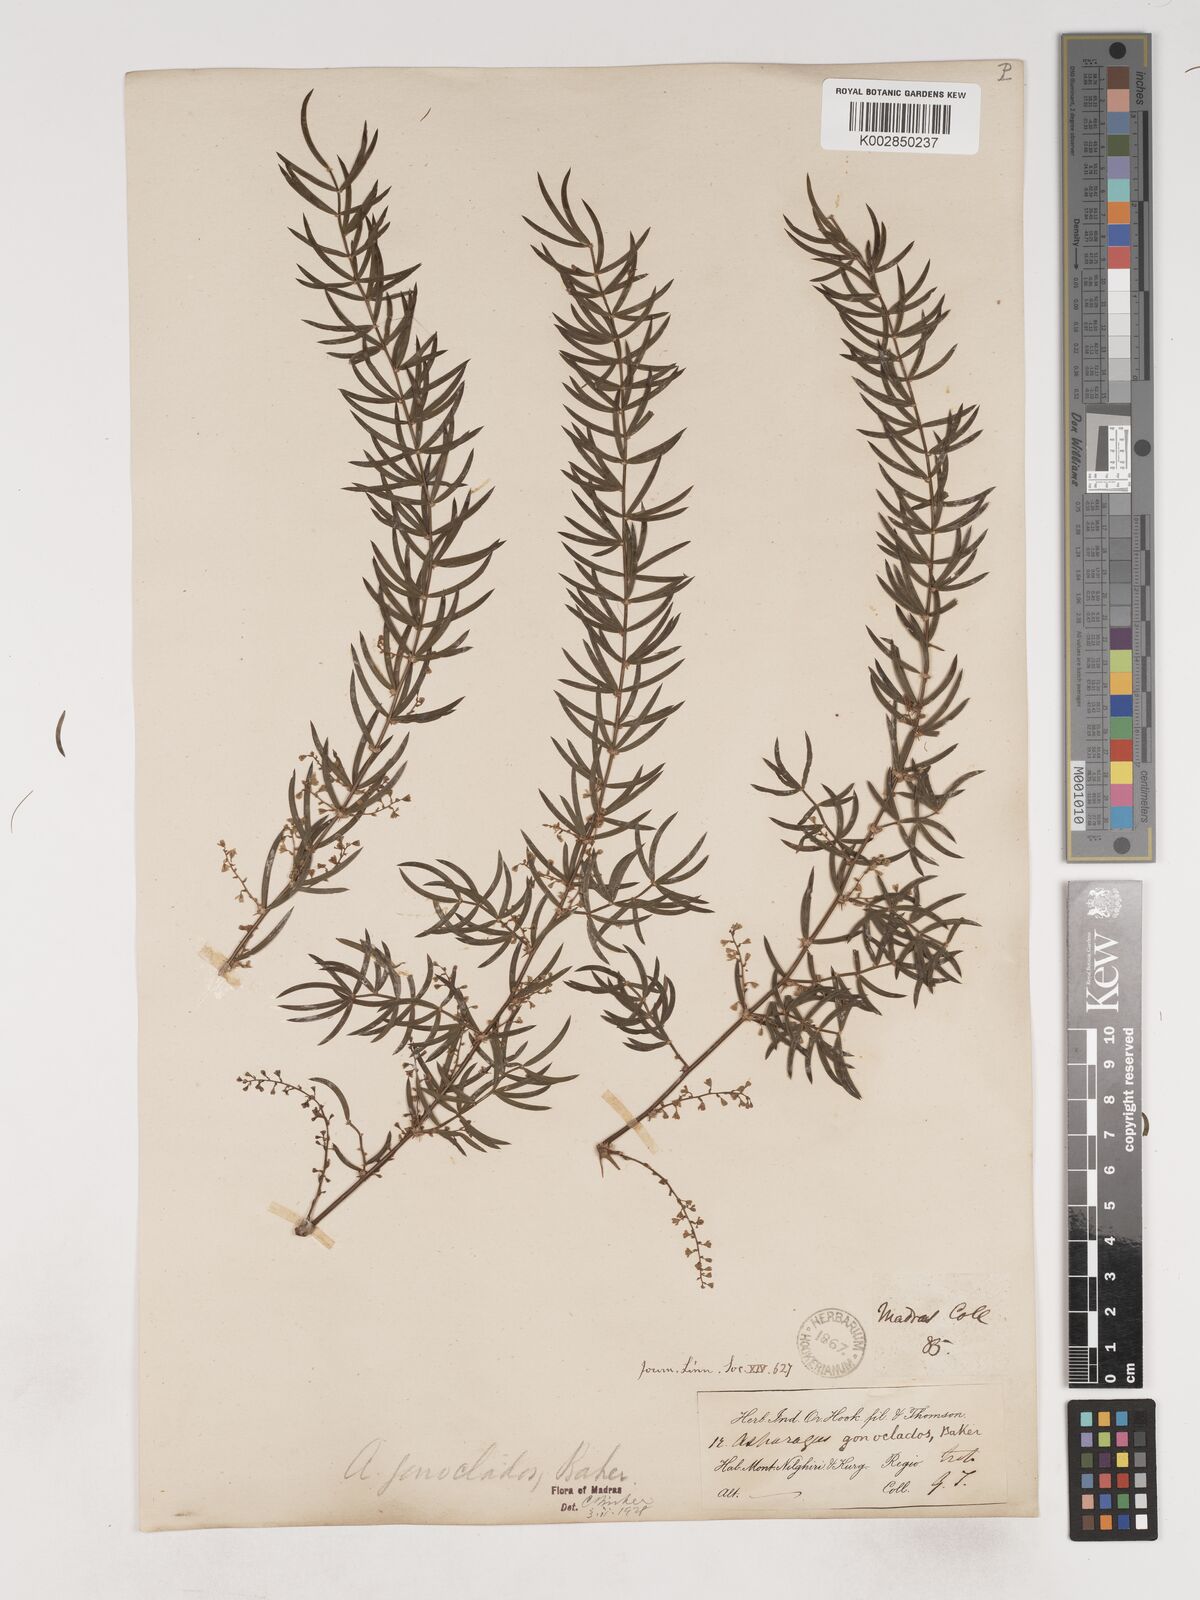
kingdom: Plantae
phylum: Tracheophyta
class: Liliopsida
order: Asparagales
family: Asparagaceae
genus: Asparagus
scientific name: Asparagus gonoclados
